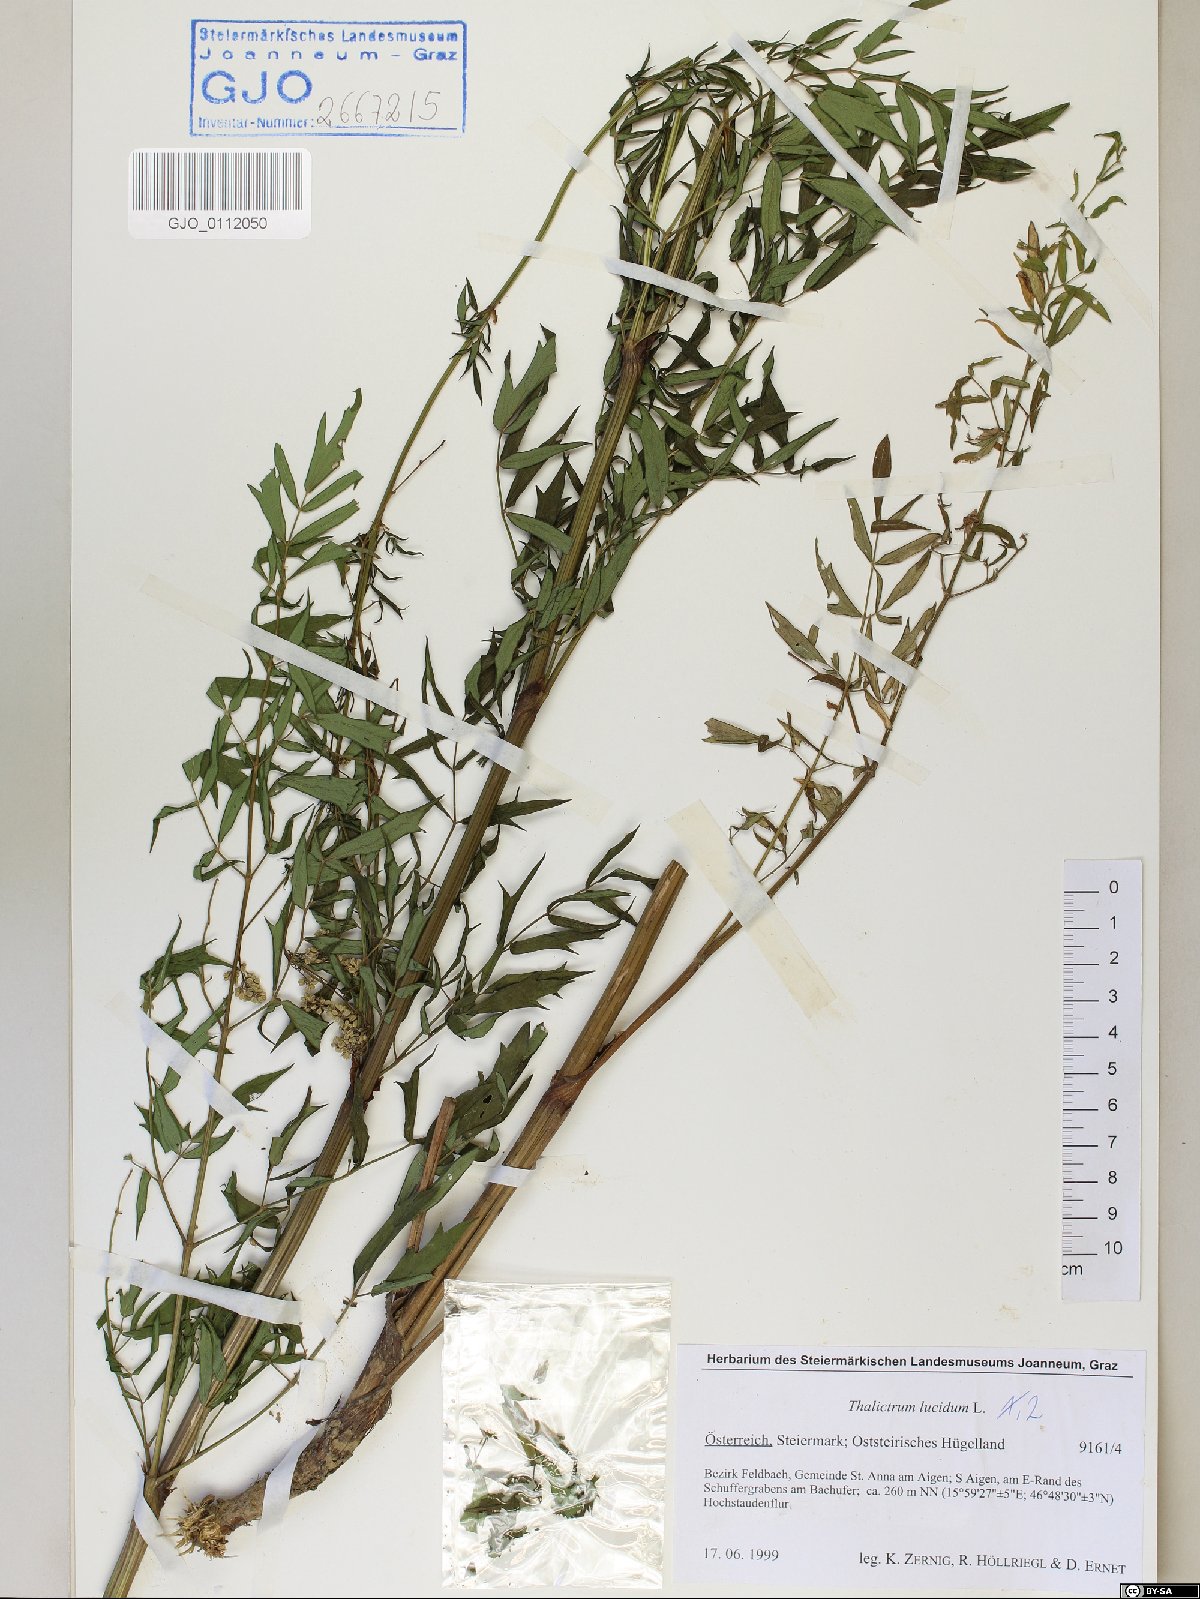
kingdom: Plantae
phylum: Tracheophyta
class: Magnoliopsida
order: Ranunculales
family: Ranunculaceae
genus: Thalictrum
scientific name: Thalictrum lucidum
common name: Shining meadow-rue
